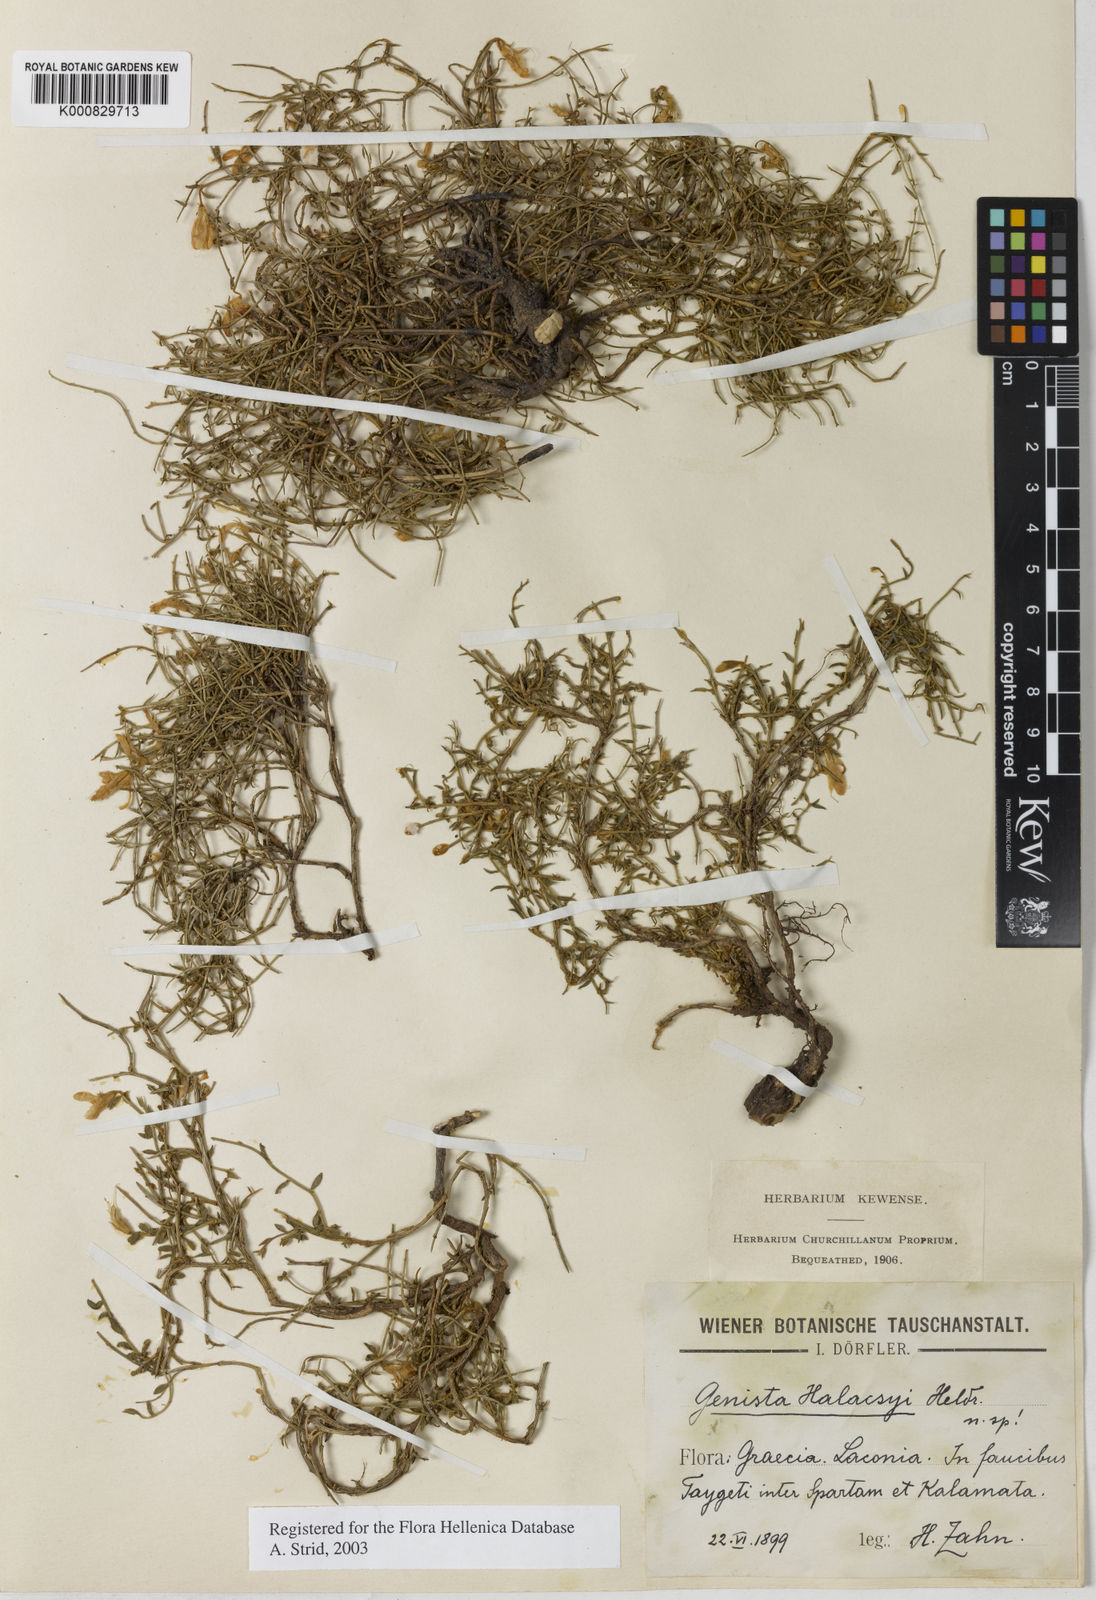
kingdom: Plantae
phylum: Tracheophyta
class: Magnoliopsida
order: Fabales
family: Fabaceae
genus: Genista
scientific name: Genista
